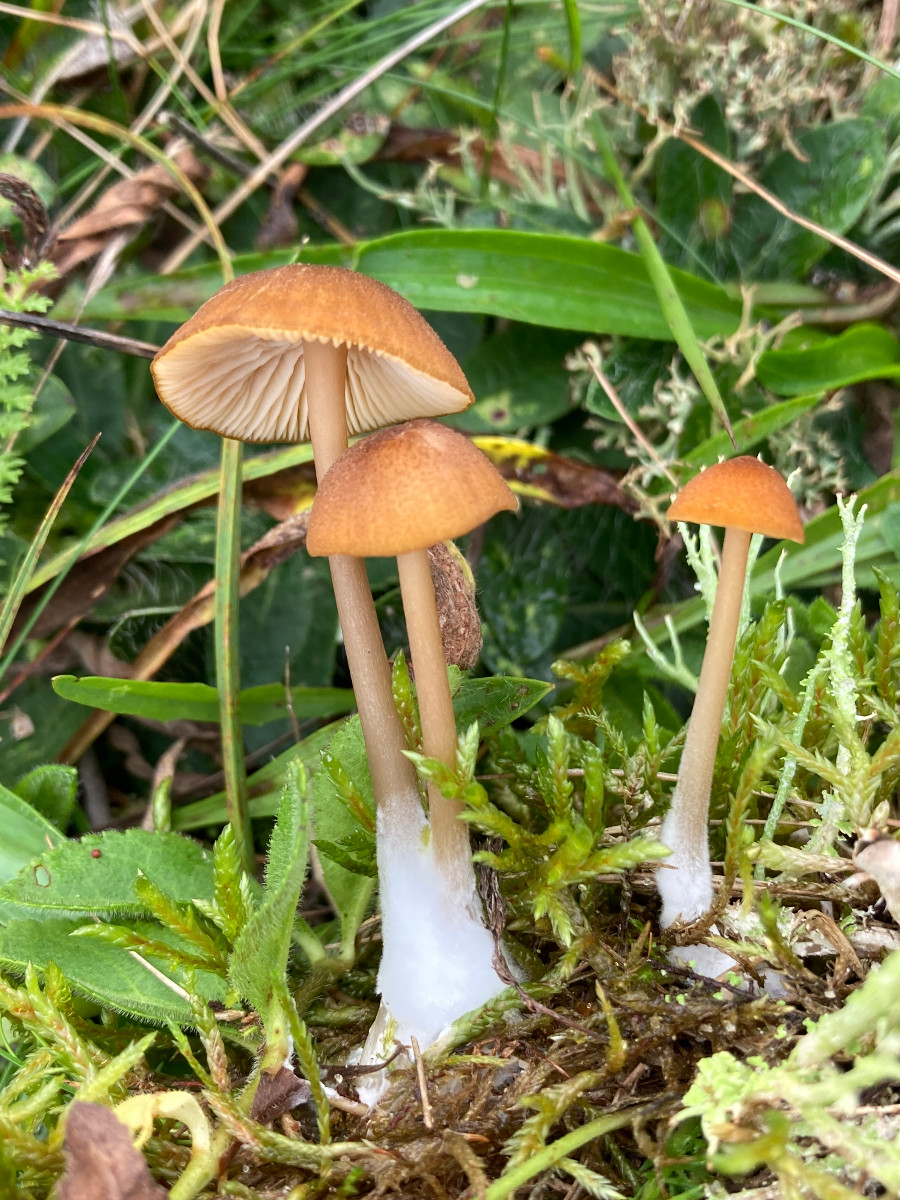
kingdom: Fungi
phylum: Basidiomycota
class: Agaricomycetes
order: Agaricales
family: Entolomataceae
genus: Entoloma
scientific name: Entoloma formosum
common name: brungul rødblad
